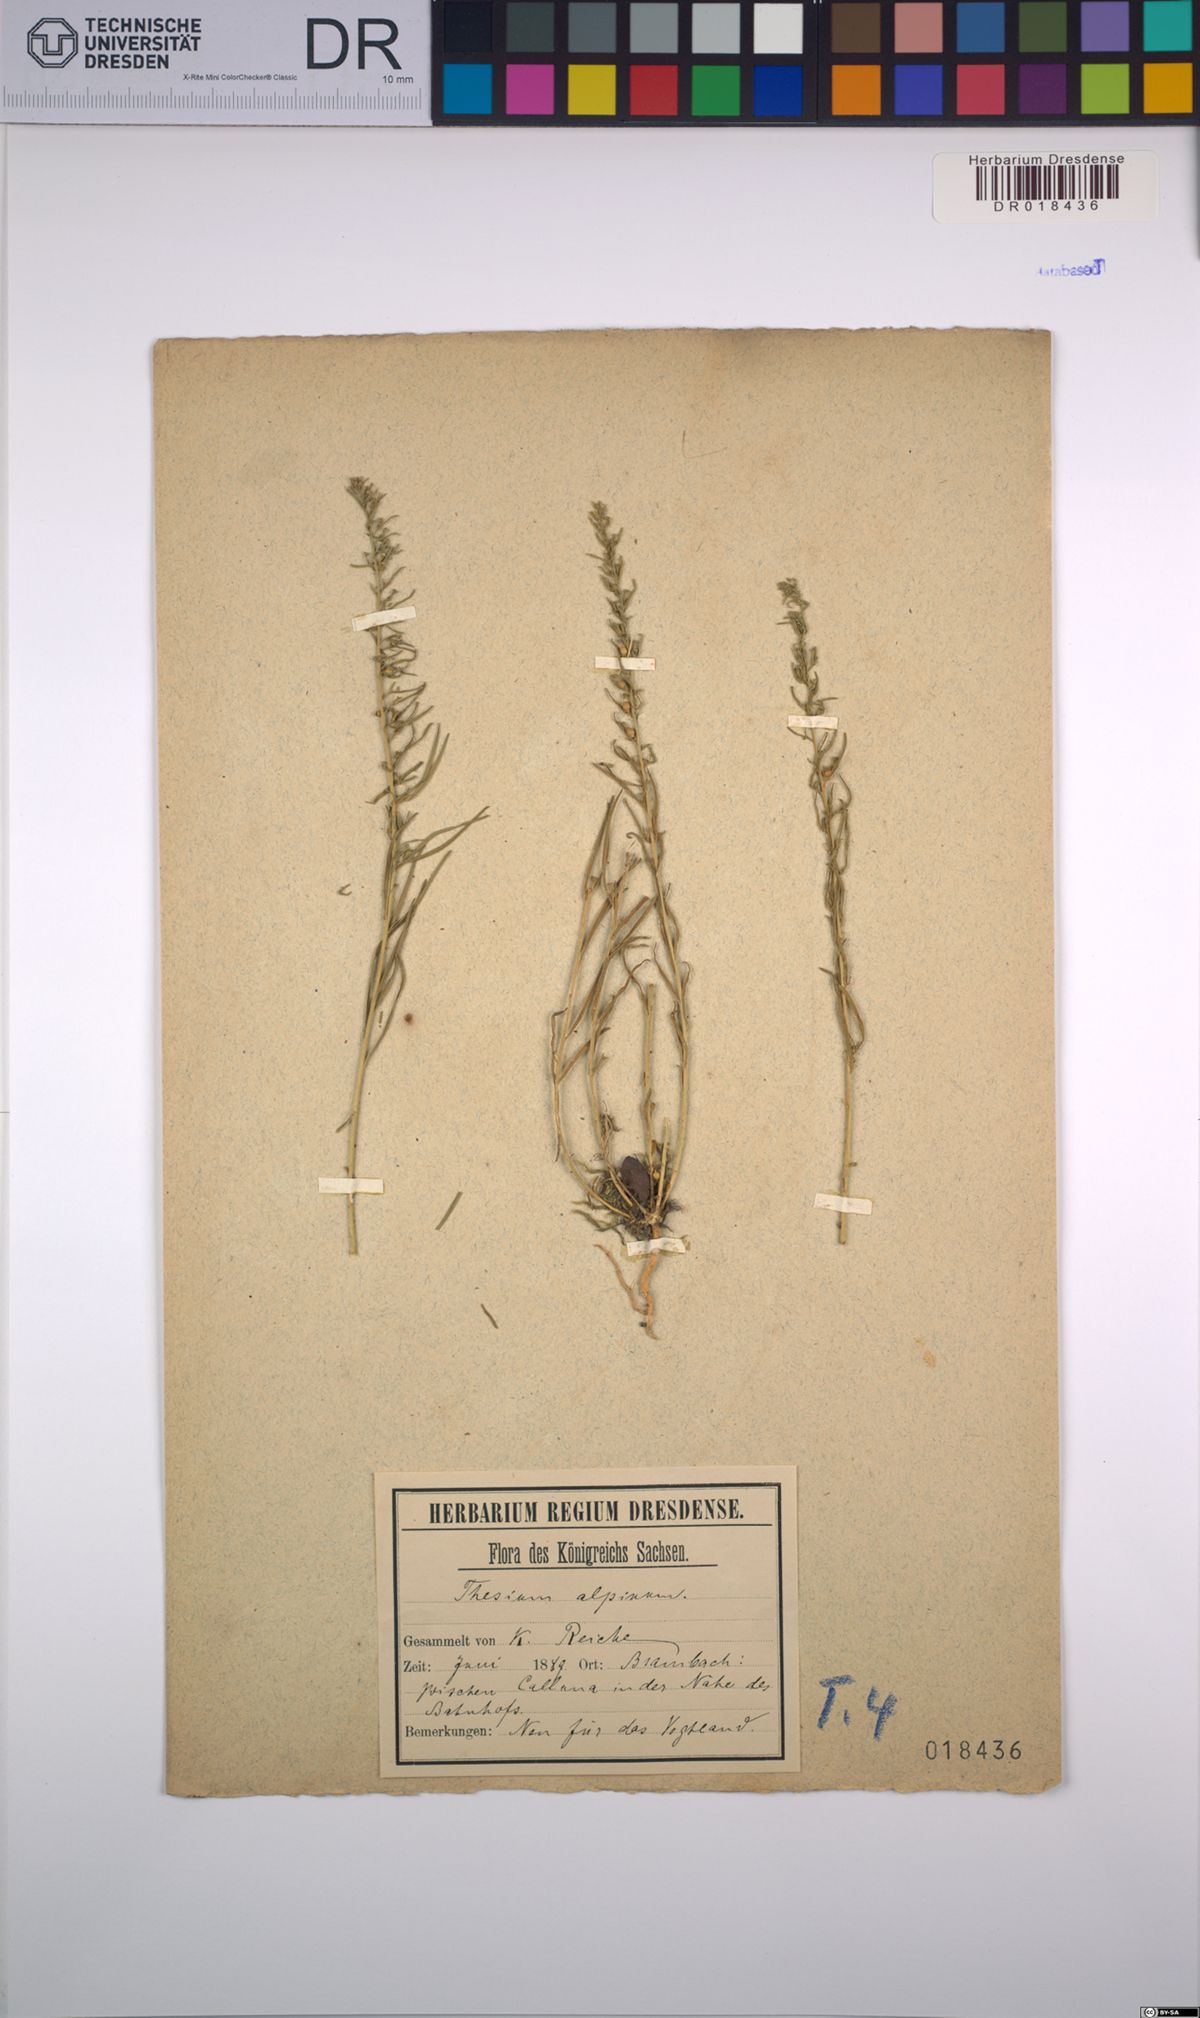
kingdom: Plantae
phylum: Tracheophyta
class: Magnoliopsida
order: Santalales
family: Thesiaceae
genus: Thesium
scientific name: Thesium alpinum
